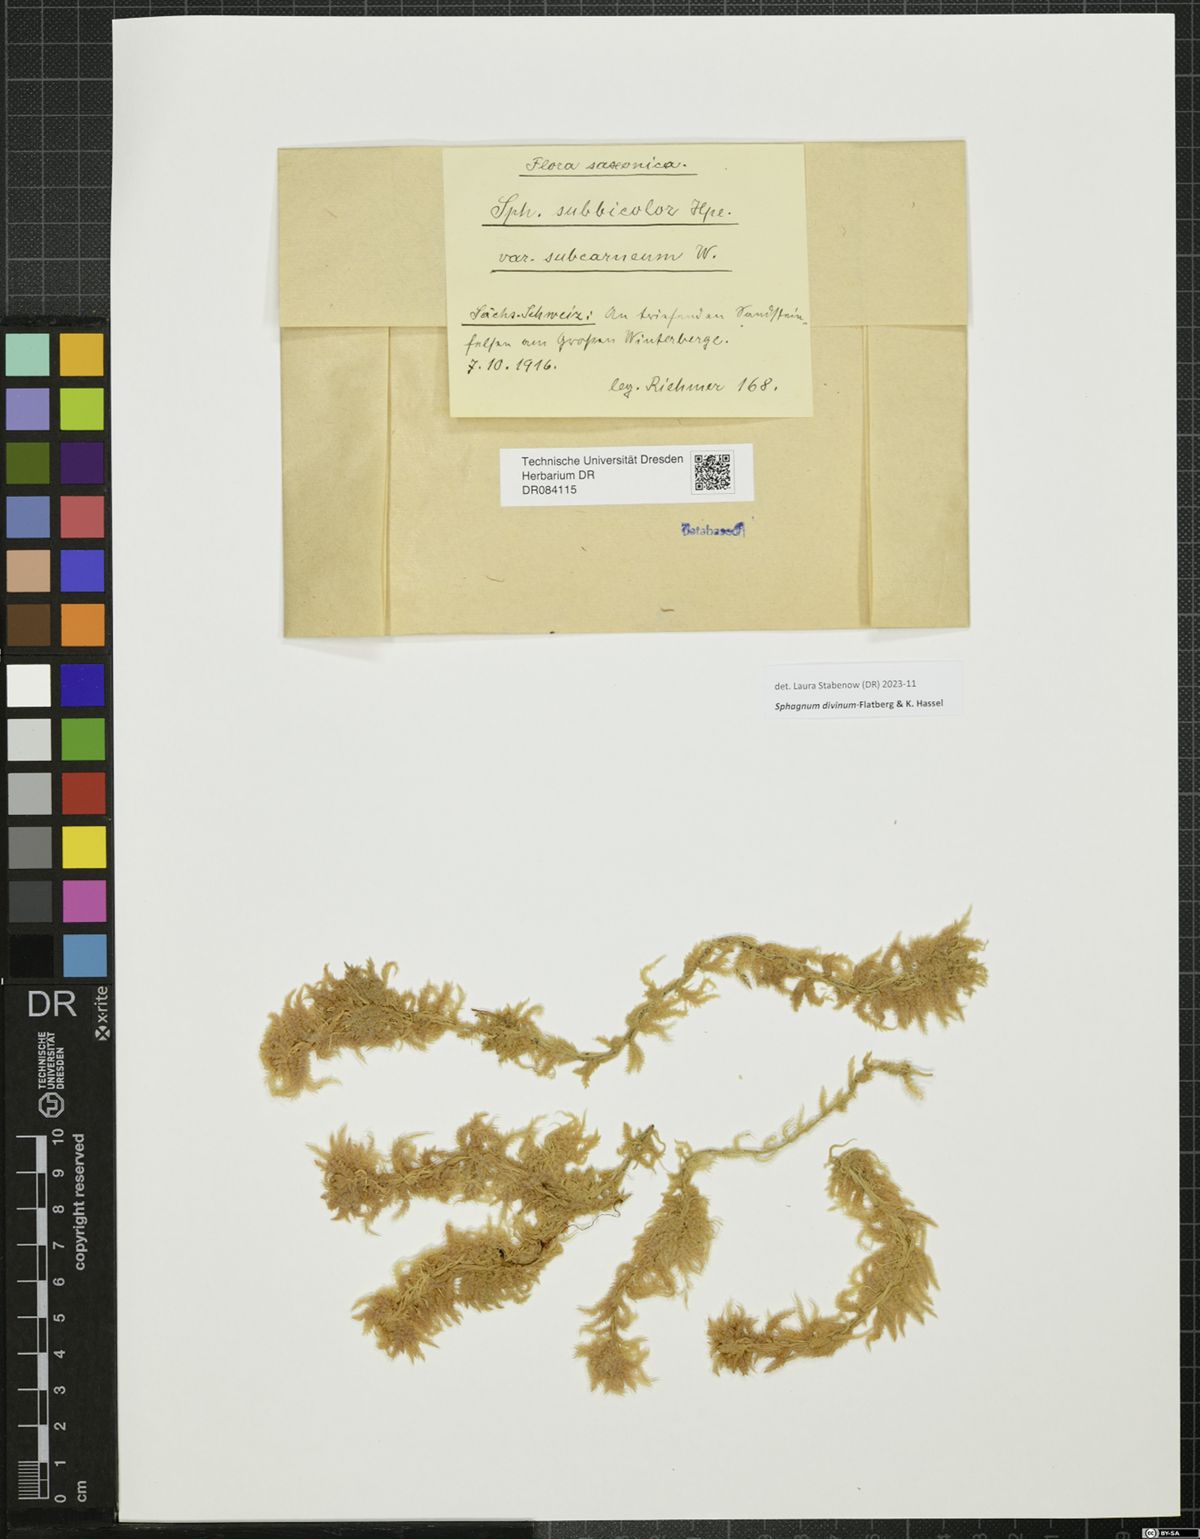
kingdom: Plantae
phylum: Bryophyta
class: Sphagnopsida
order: Sphagnales
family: Sphagnaceae
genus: Sphagnum
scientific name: Sphagnum divinum
